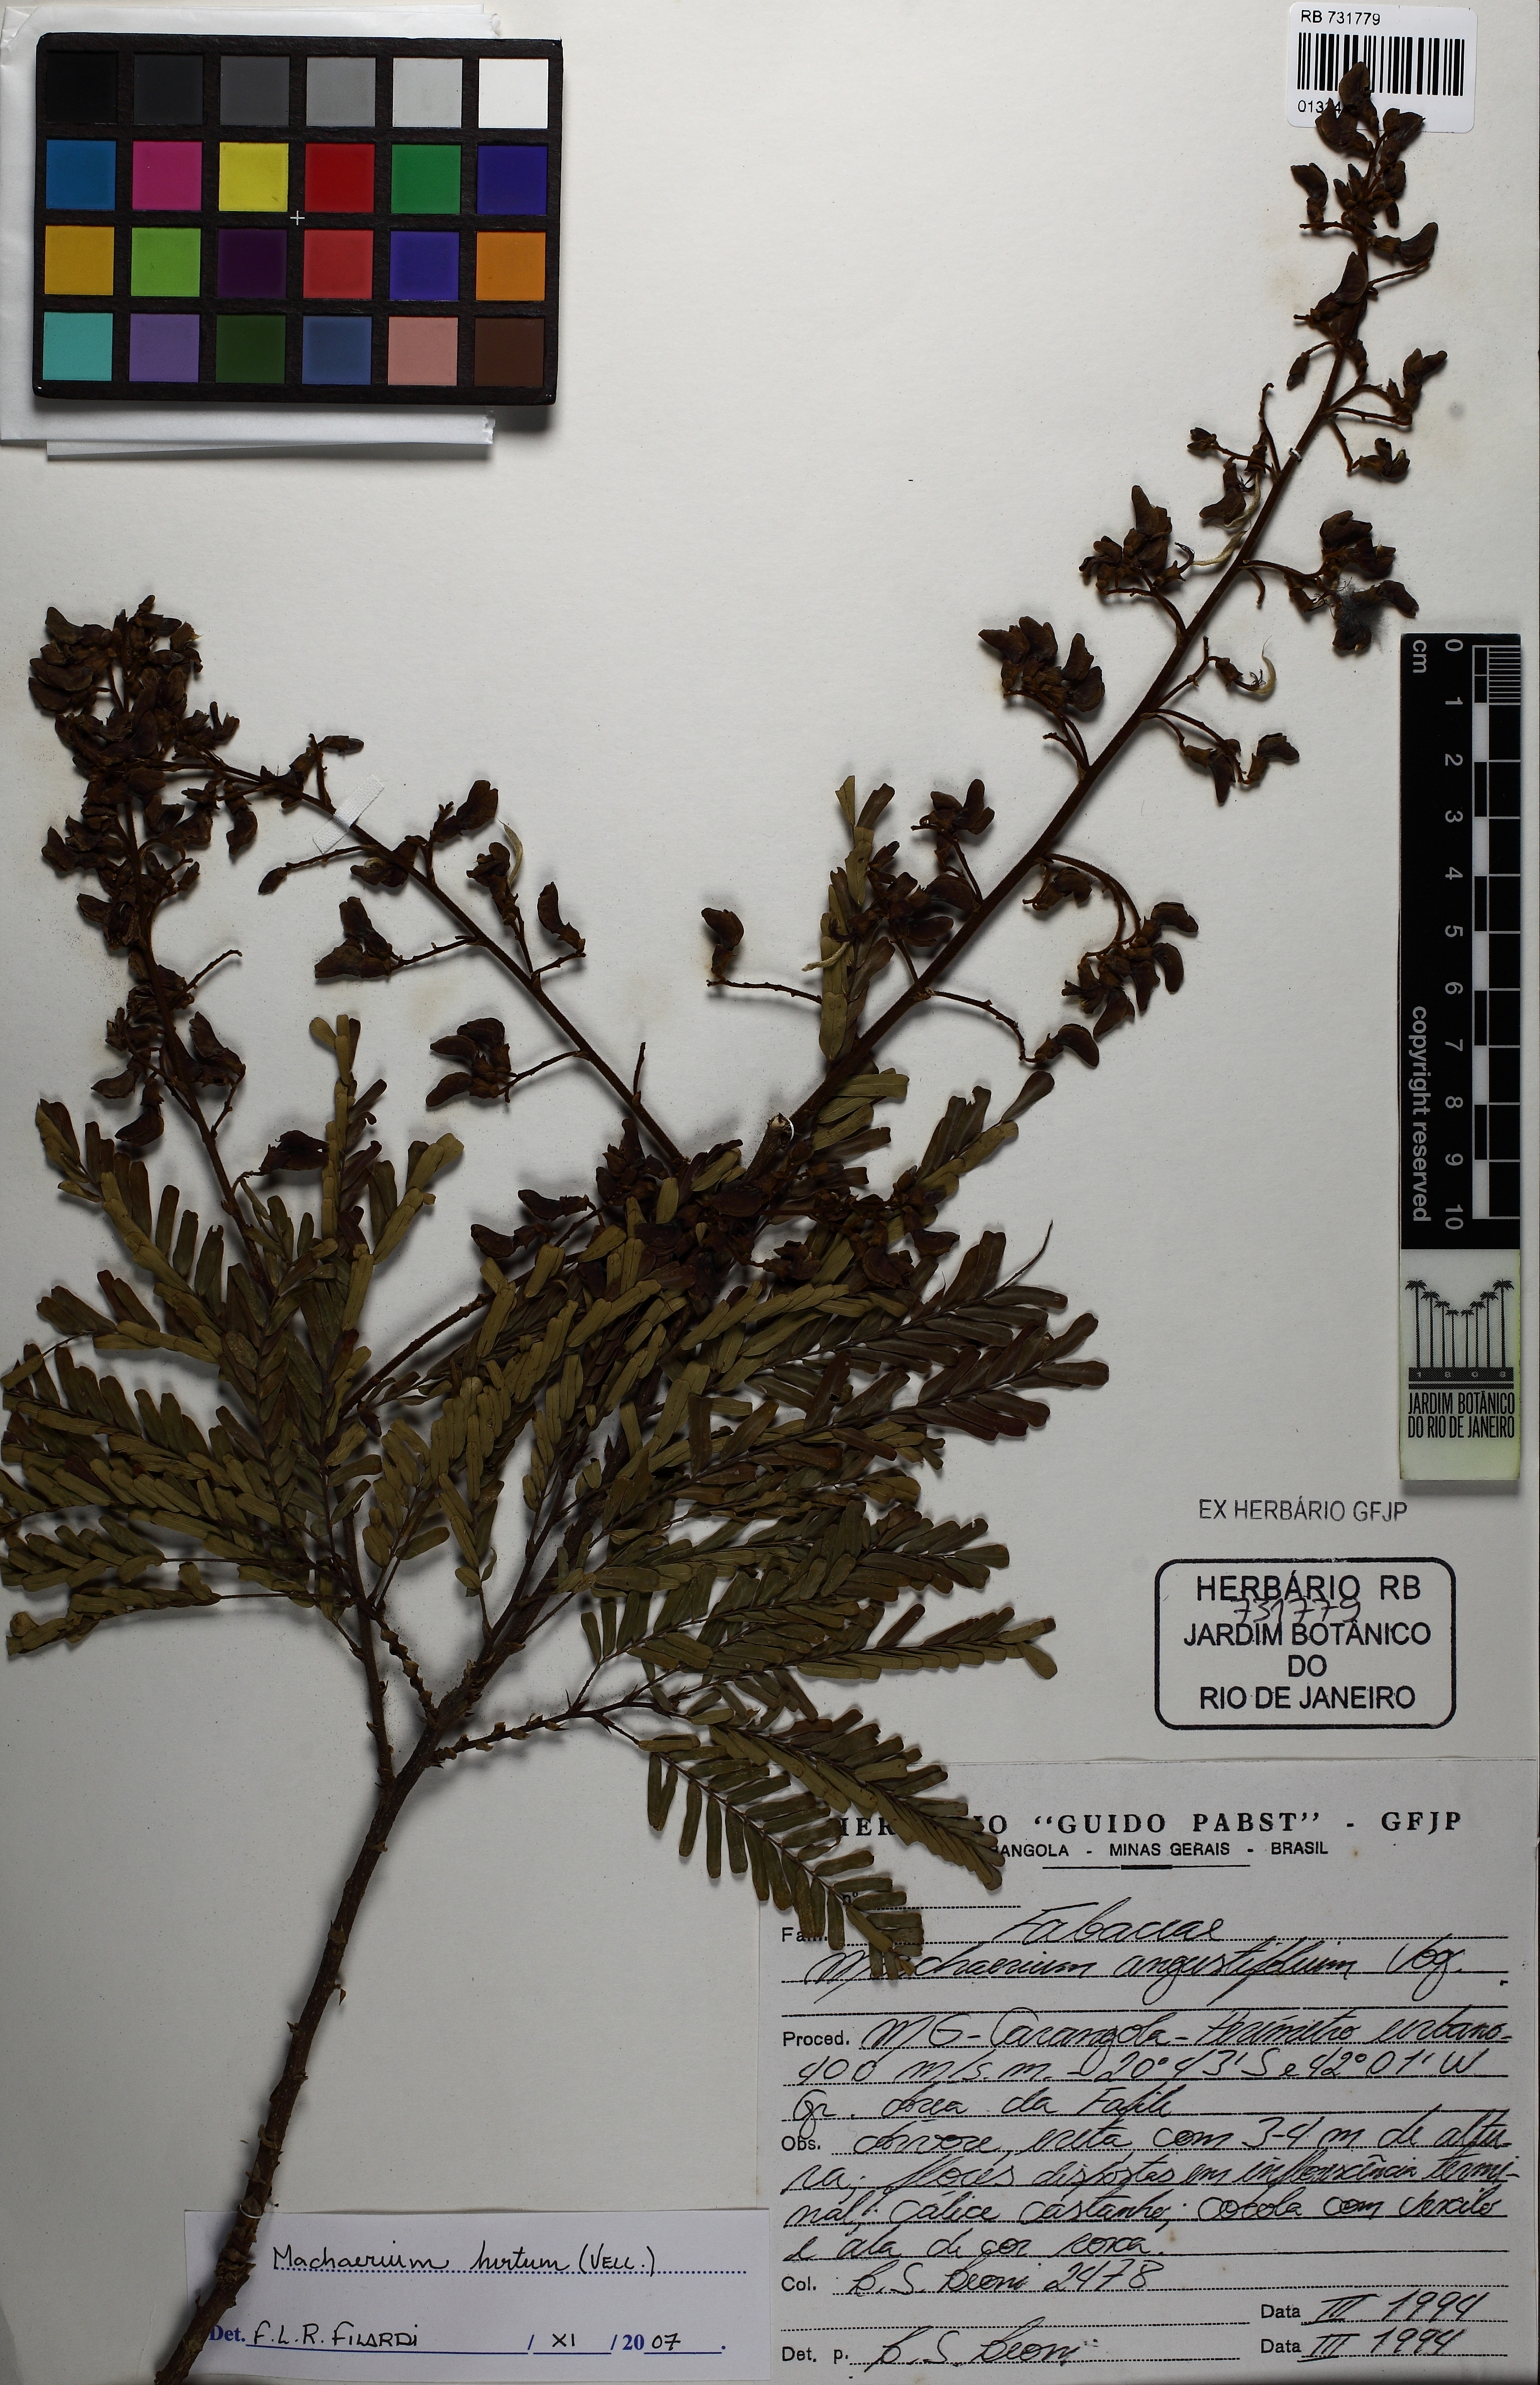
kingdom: Plantae
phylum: Tracheophyta
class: Magnoliopsida
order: Fabales
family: Fabaceae
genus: Machaerium
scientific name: Machaerium hirtum
